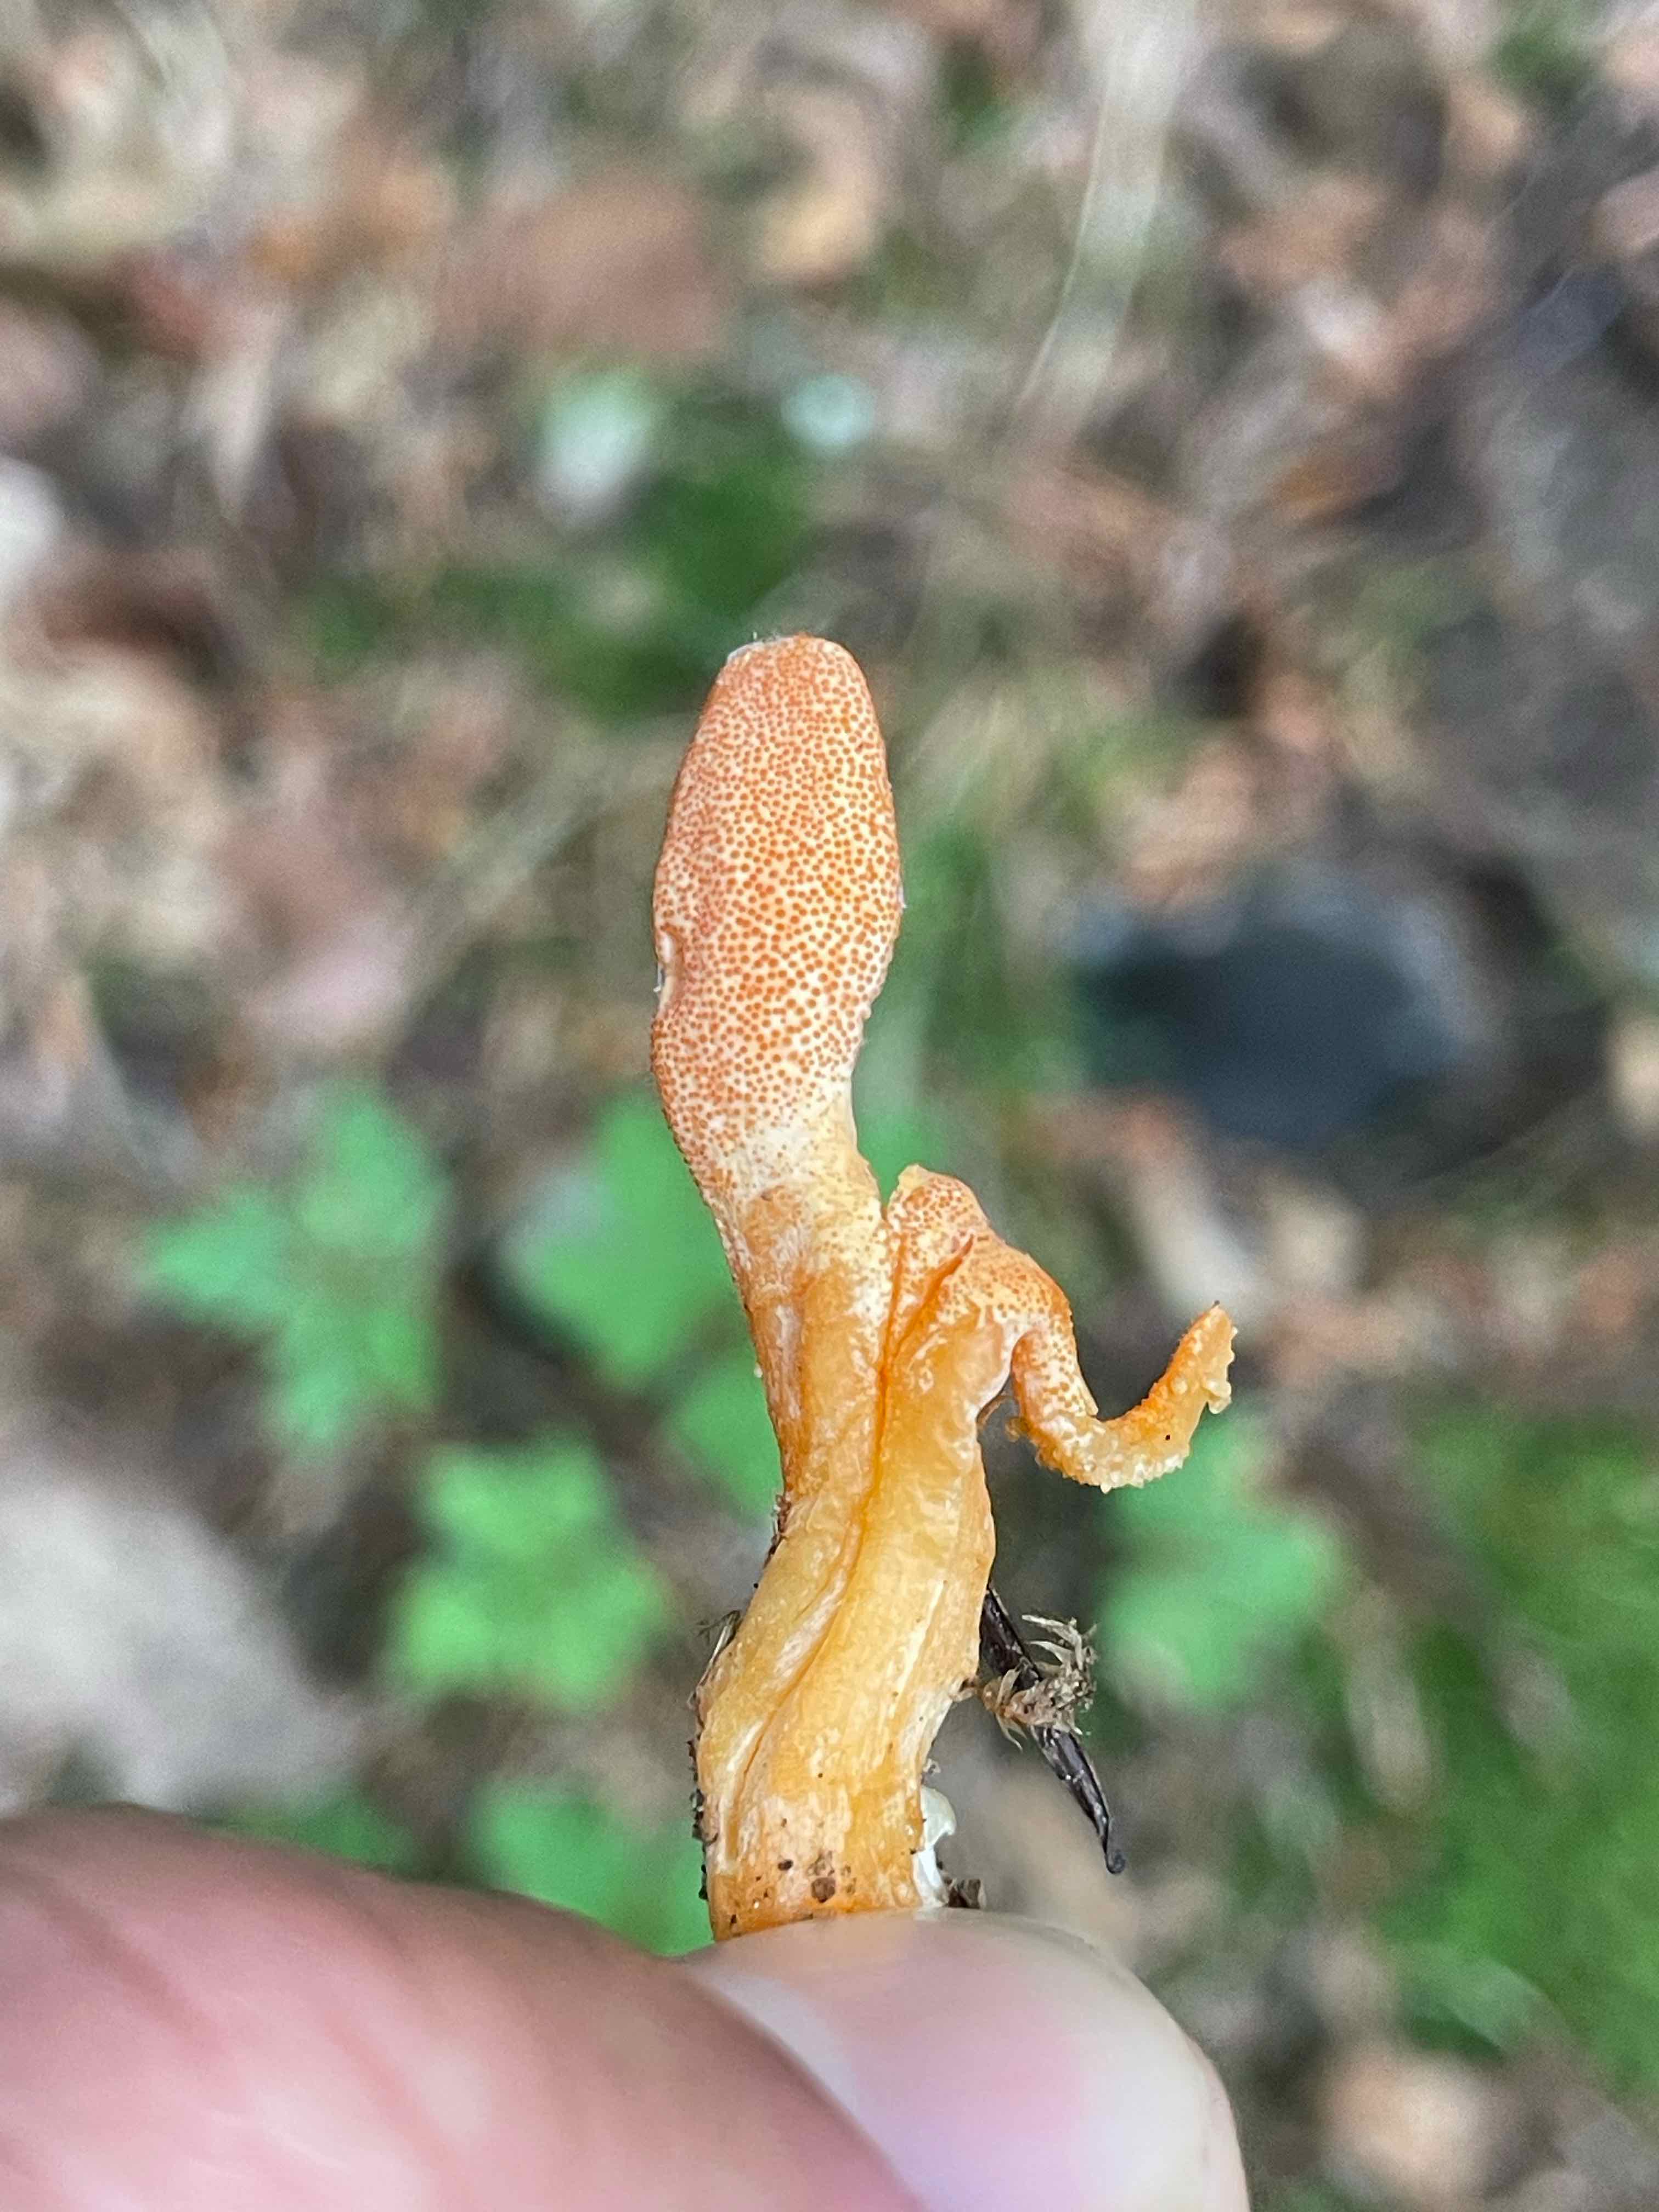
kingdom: Fungi
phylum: Ascomycota
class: Sordariomycetes
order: Hypocreales
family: Cordycipitaceae
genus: Cordyceps
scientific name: Cordyceps militaris
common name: puppe-snyltekølle
